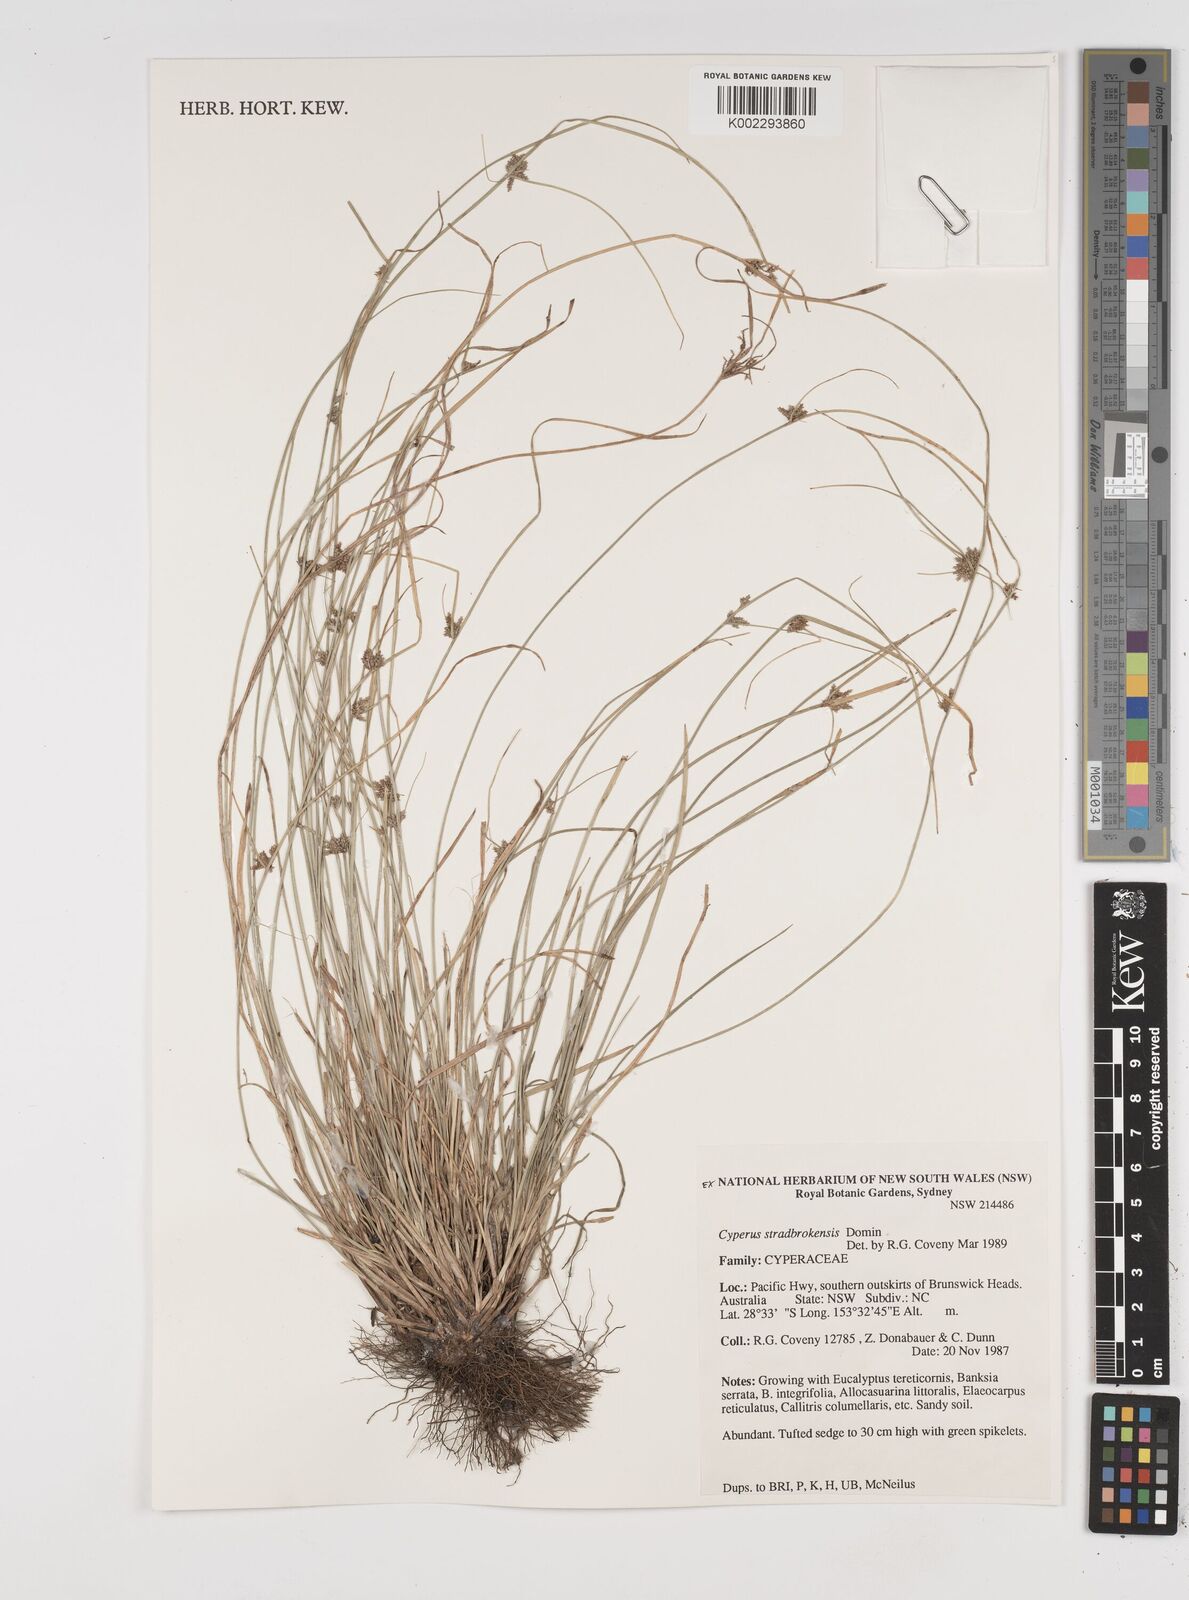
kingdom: Plantae
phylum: Tracheophyta
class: Liliopsida
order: Poales
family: Cyperaceae
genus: Cyperus
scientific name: Cyperus stradbrokensis
